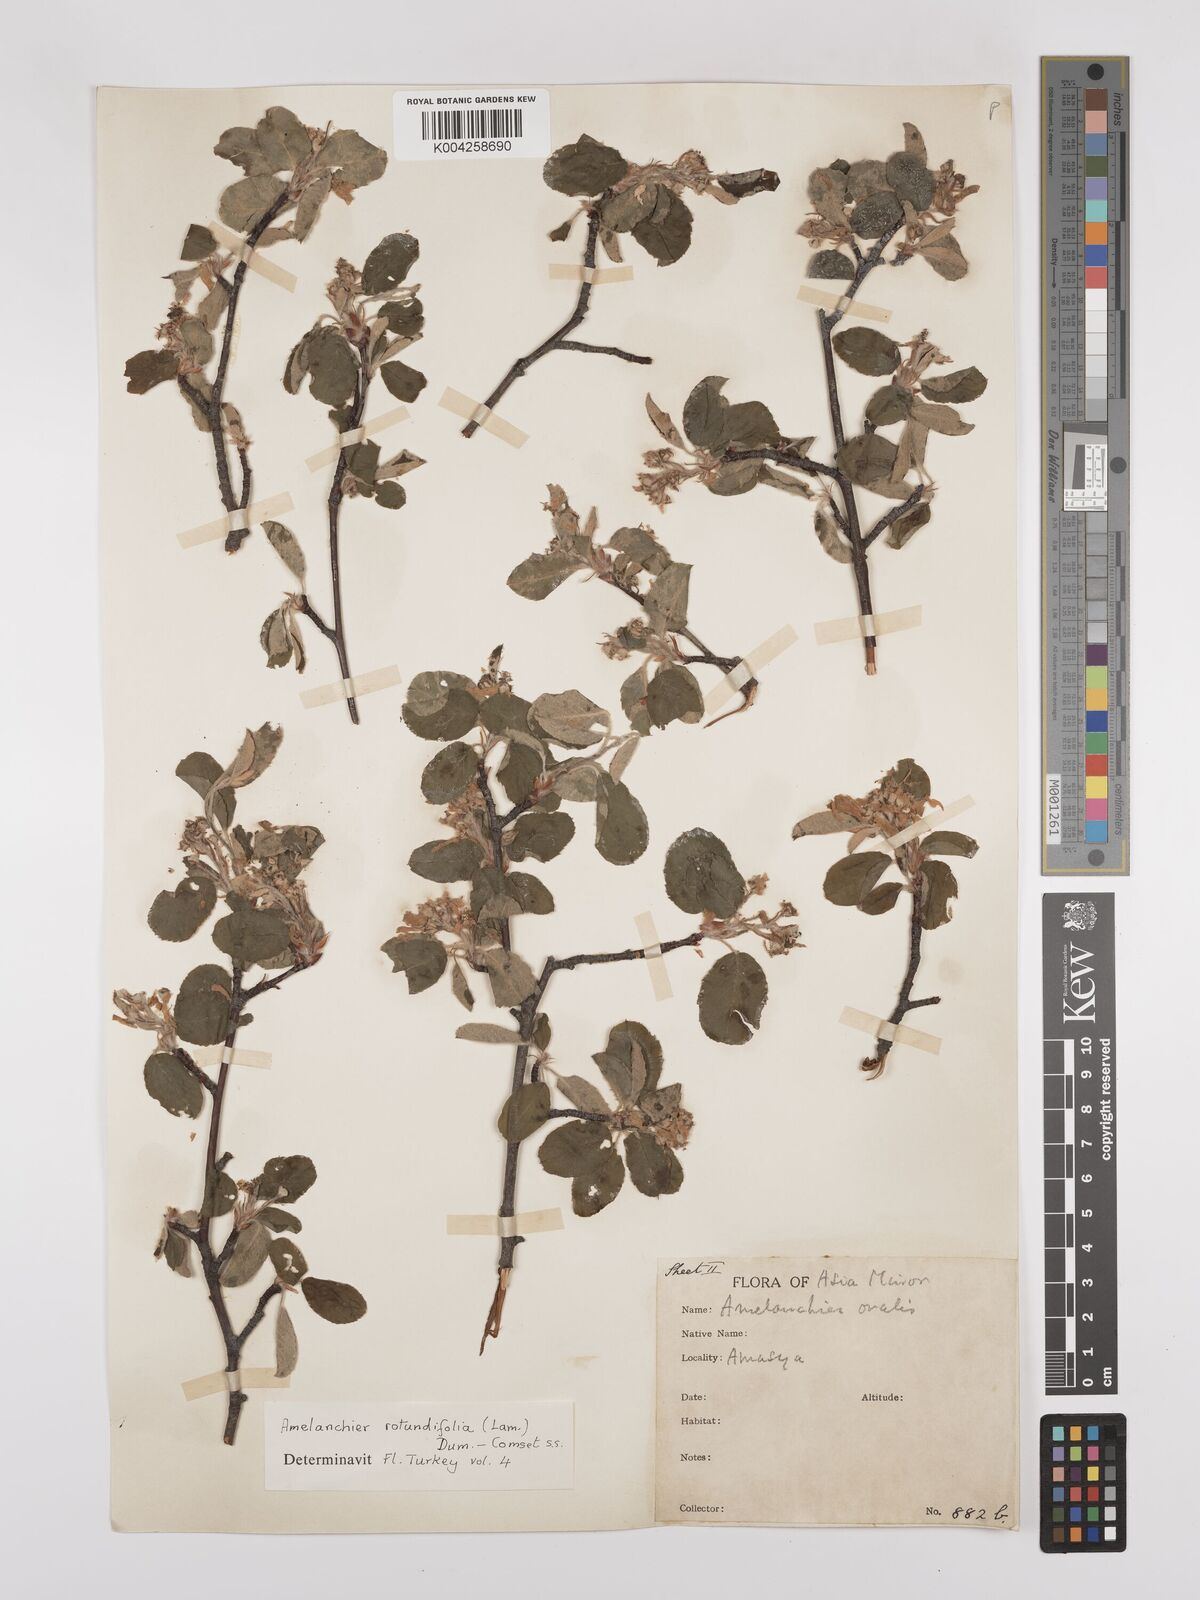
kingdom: Plantae
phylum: Tracheophyta
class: Magnoliopsida
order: Rosales
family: Rosaceae
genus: Amelanchier
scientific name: Amelanchier ovalis
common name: Serviceberry
